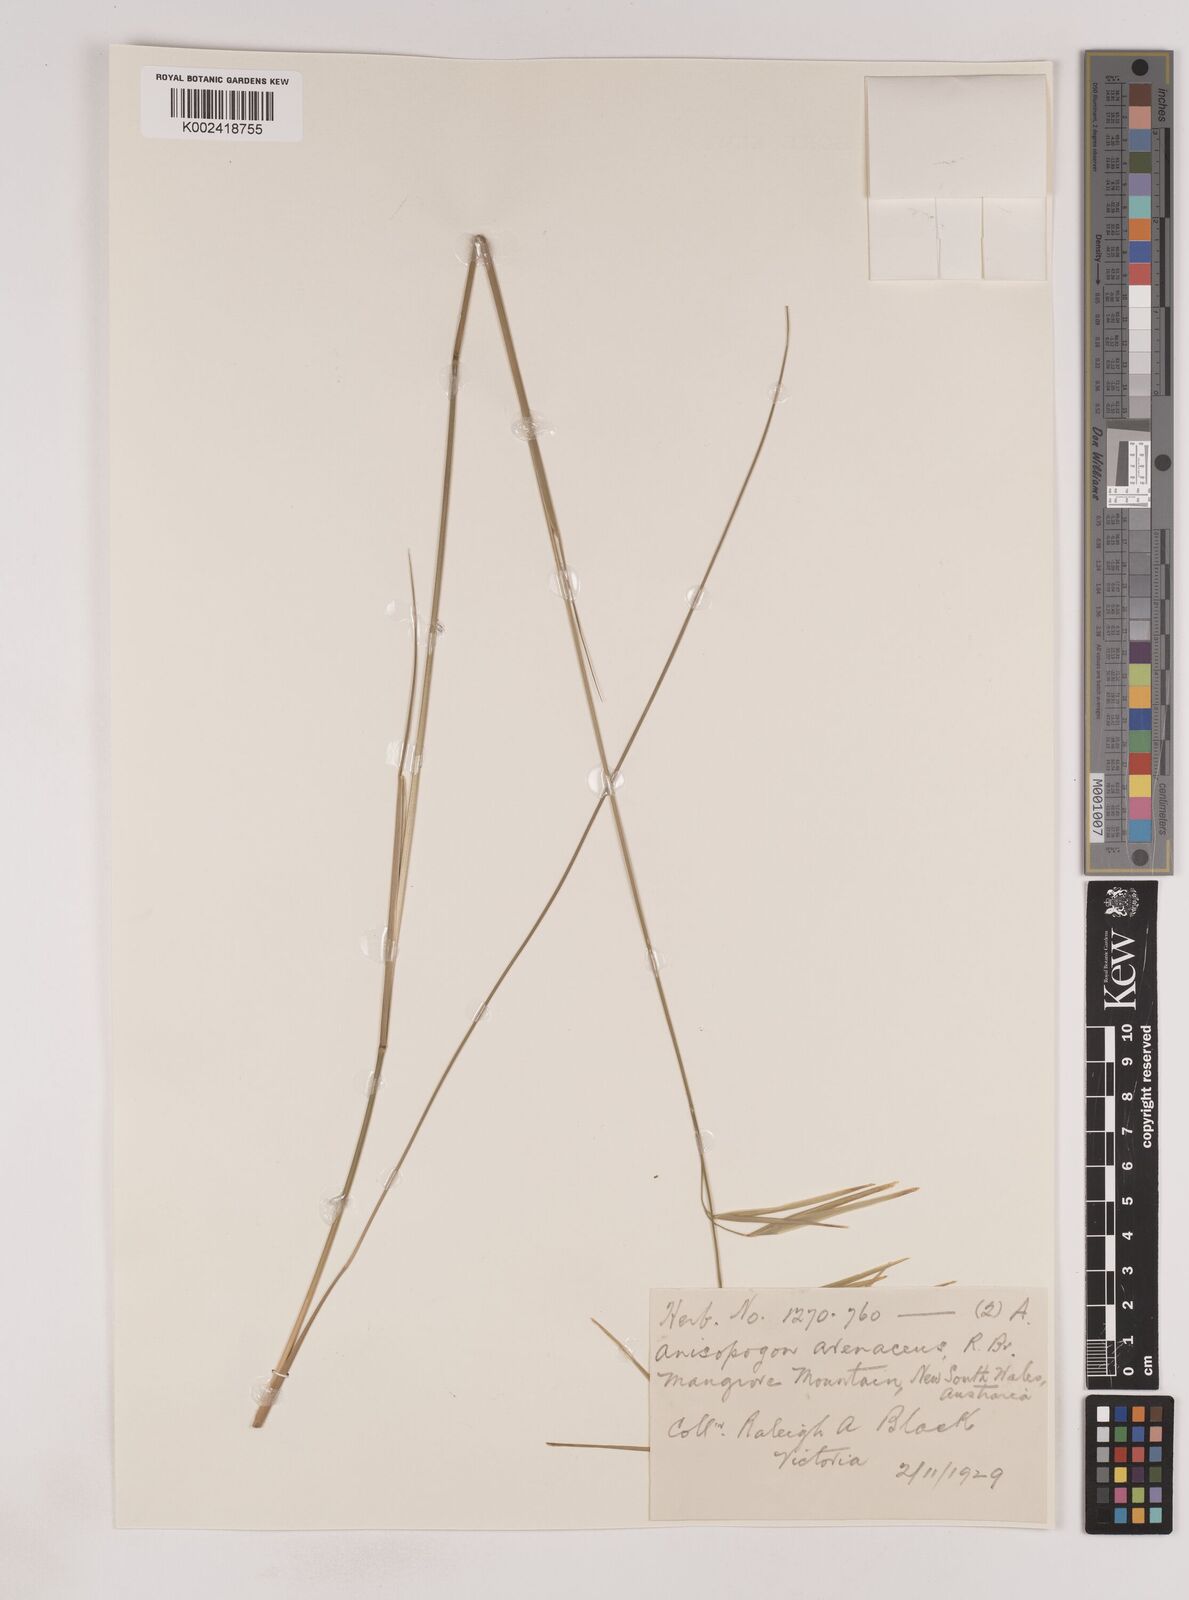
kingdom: Plantae
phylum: Tracheophyta
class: Liliopsida
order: Poales
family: Poaceae
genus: Anisopogon
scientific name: Anisopogon avenaceus
